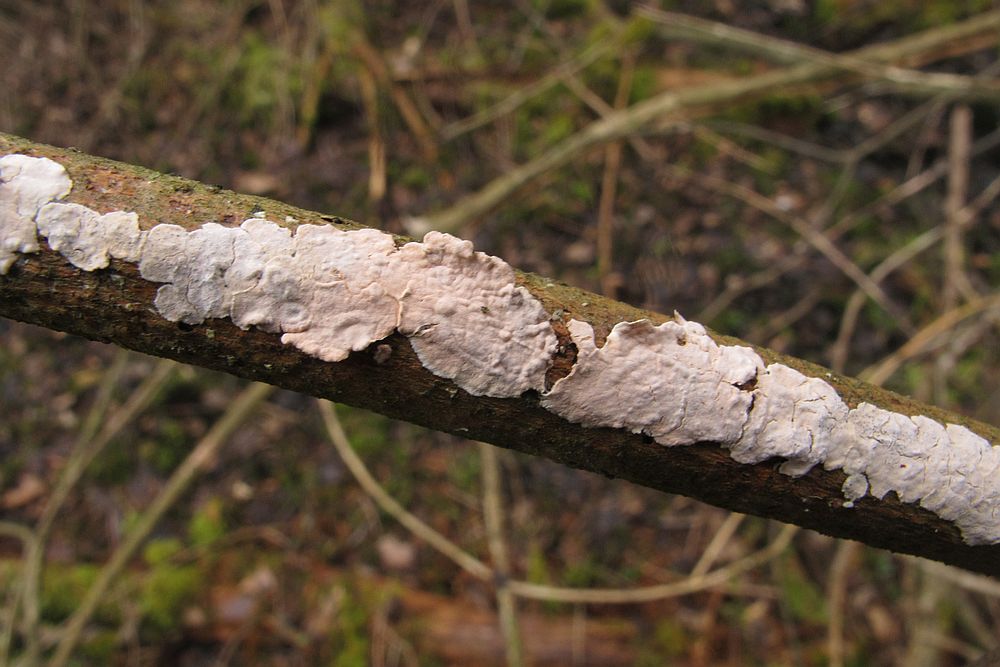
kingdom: Fungi
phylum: Basidiomycota
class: Agaricomycetes
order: Corticiales
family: Corticiaceae
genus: Corticium
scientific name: Corticium roseum
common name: rosa barkskind
